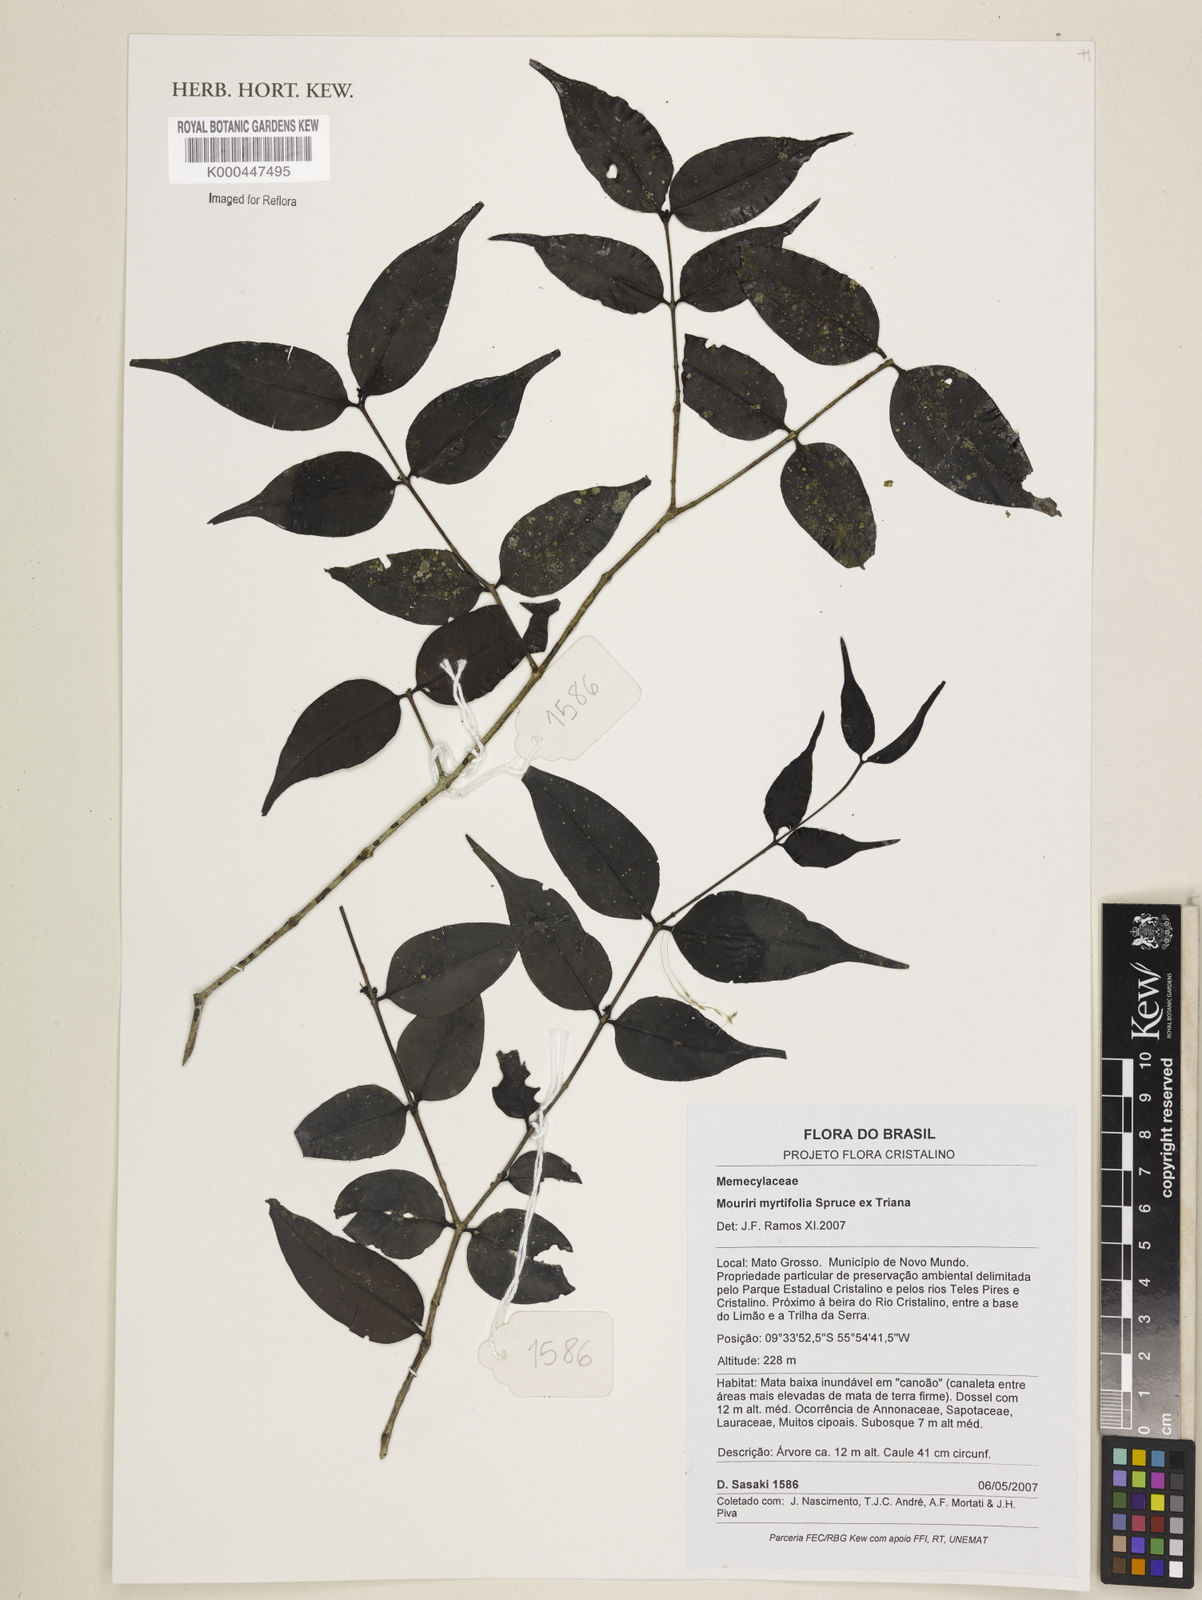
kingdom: Plantae
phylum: Tracheophyta
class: Magnoliopsida
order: Myrtales
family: Melastomataceae
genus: Mouriri
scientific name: Mouriri myrtifolia
